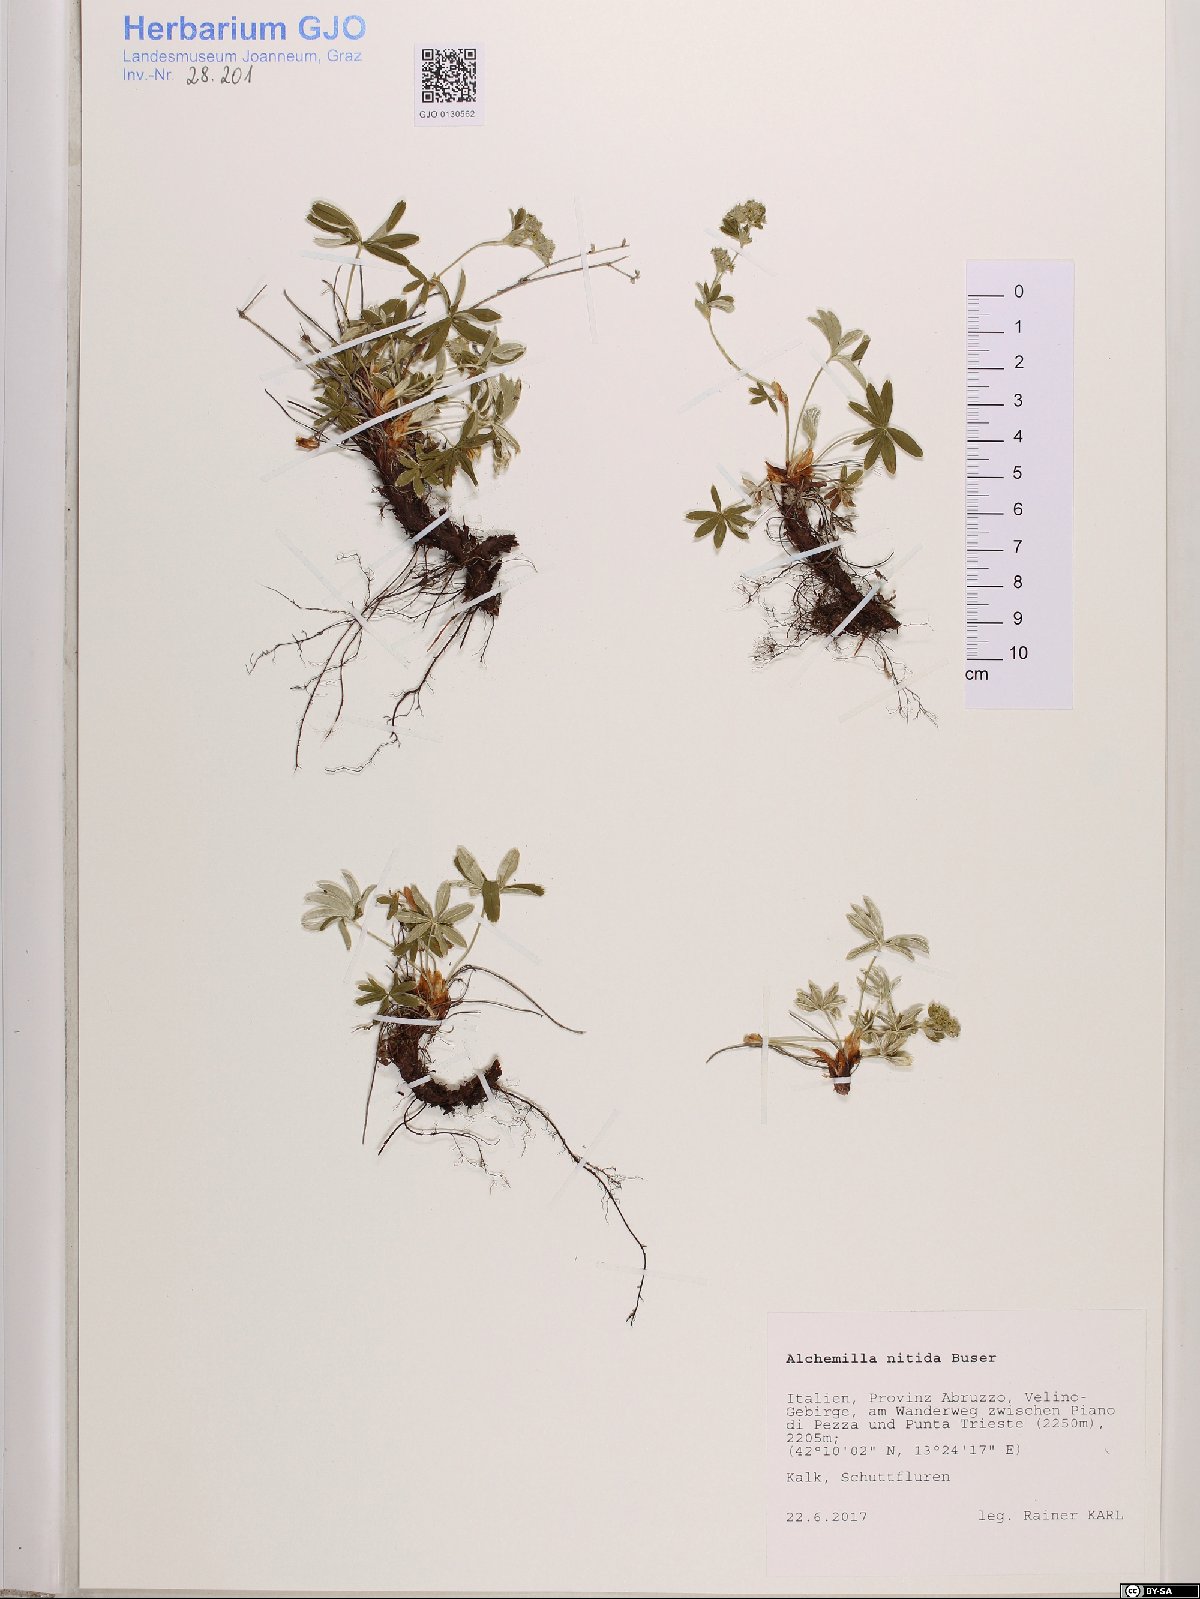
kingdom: Plantae
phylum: Tracheophyta
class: Magnoliopsida
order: Rosales
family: Rosaceae
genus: Alchemilla
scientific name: Alchemilla nitida
